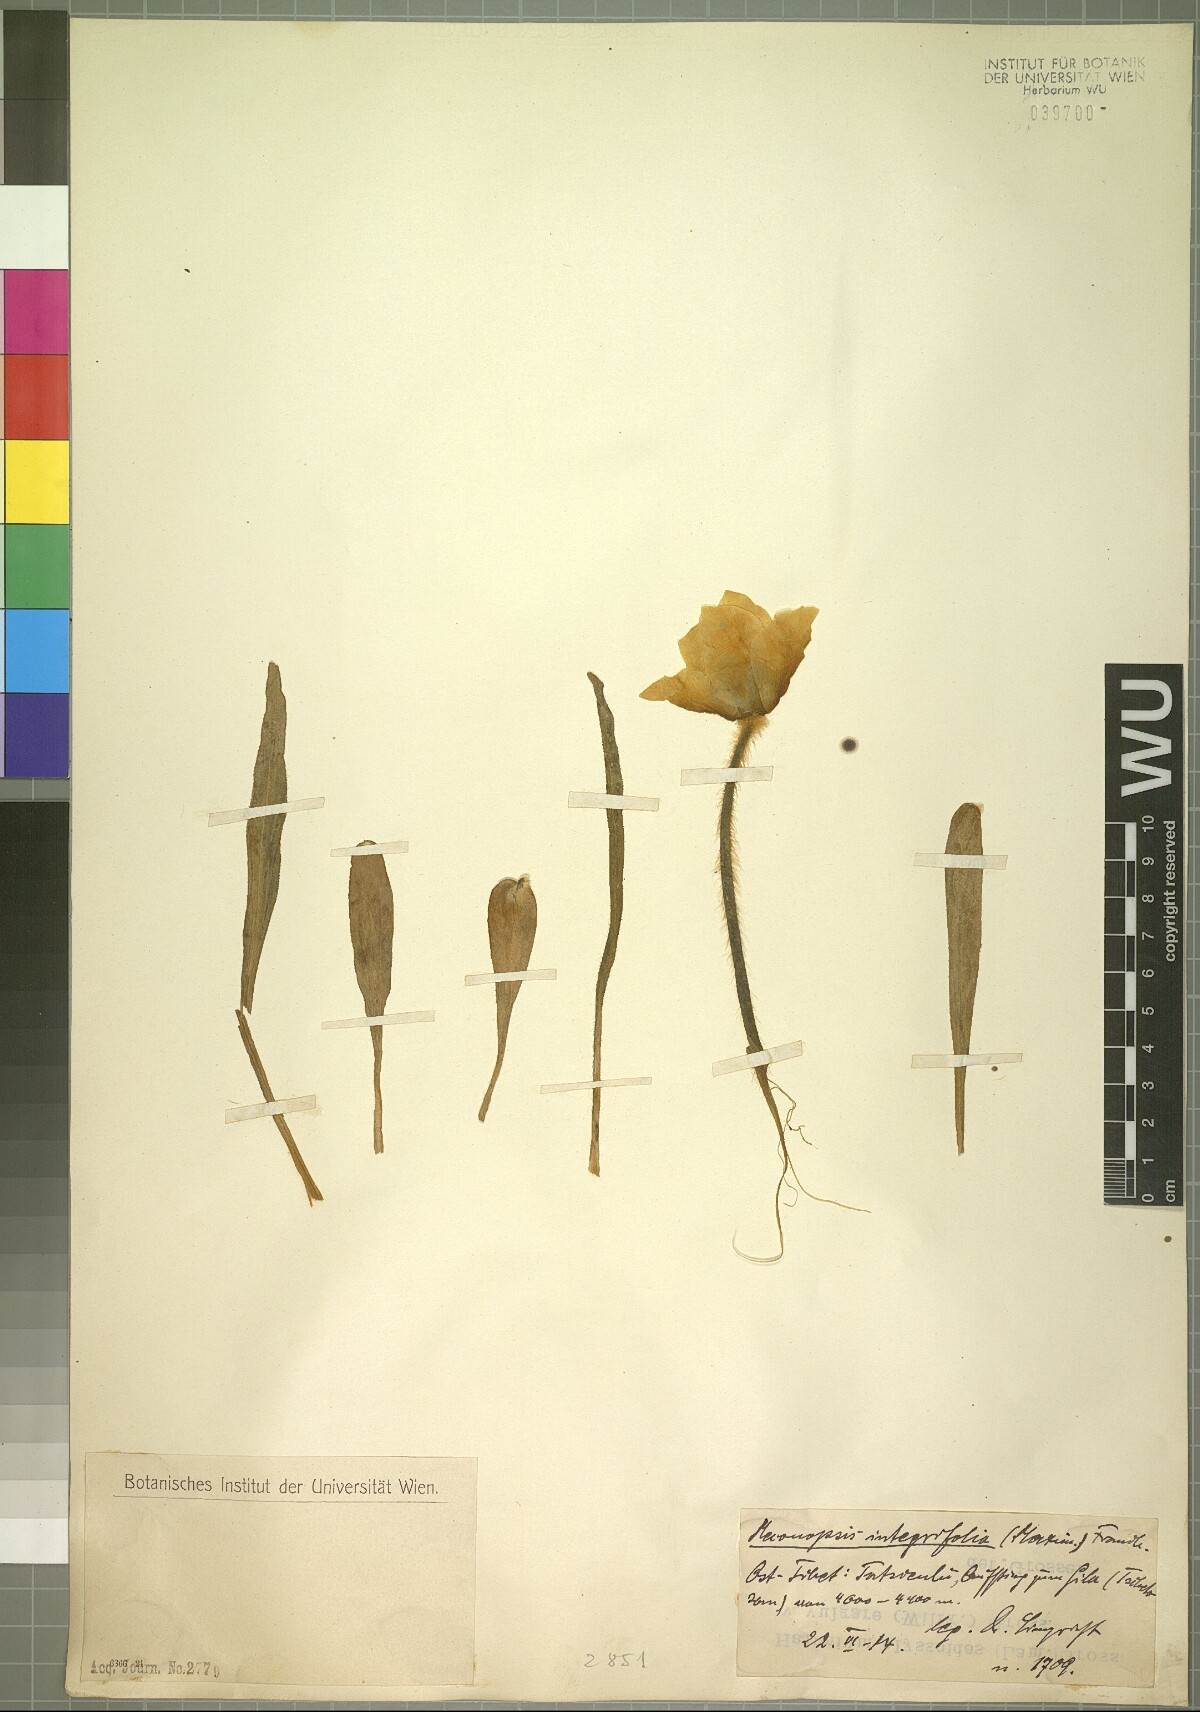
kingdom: Plantae
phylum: Tracheophyta
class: Magnoliopsida
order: Ranunculales
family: Papaveraceae
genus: Meconopsis
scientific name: Meconopsis integrifolia
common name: Yellow poppywort
